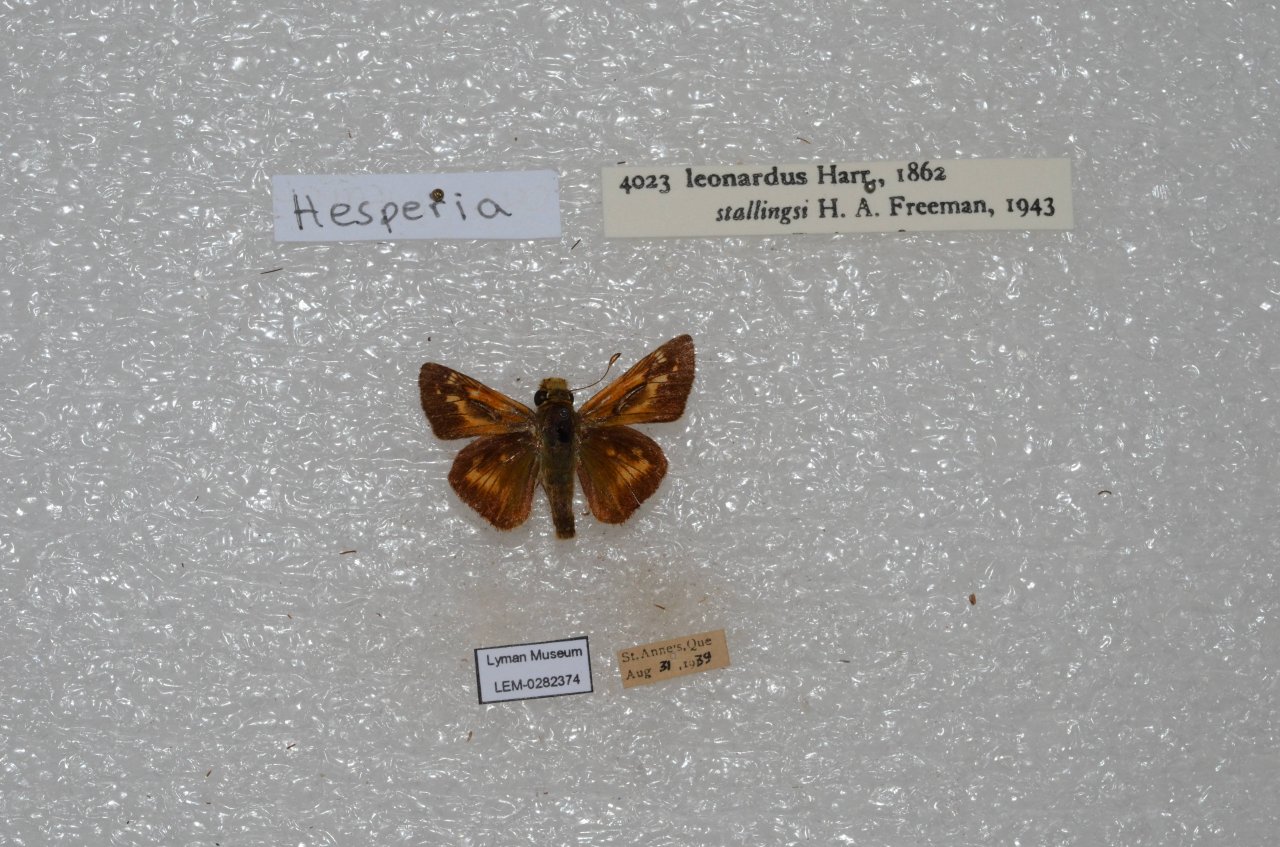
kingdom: Animalia
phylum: Arthropoda
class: Insecta
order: Lepidoptera
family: Hesperiidae
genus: Hesperia
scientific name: Hesperia leonardus
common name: Leonard's Skipper
